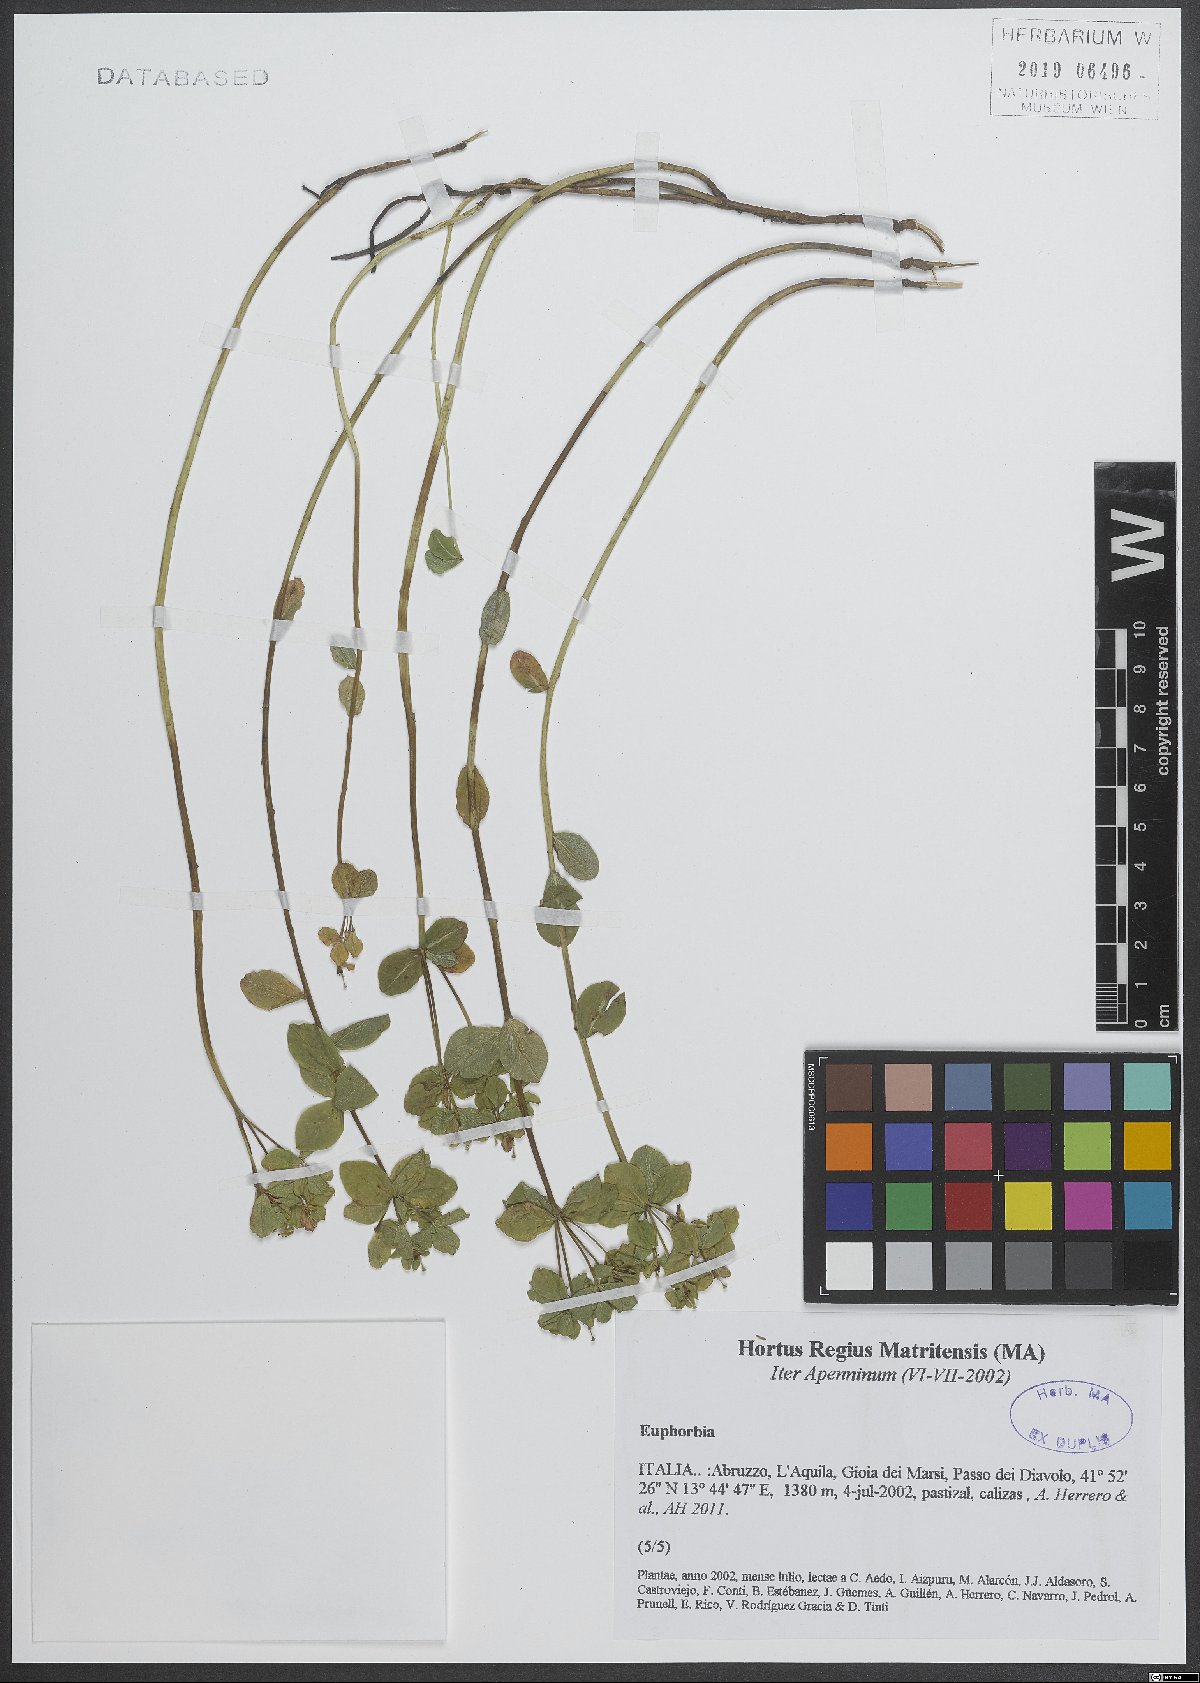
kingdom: Plantae
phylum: Tracheophyta
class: Magnoliopsida
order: Malpighiales
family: Euphorbiaceae
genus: Euphorbia
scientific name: Euphorbia
